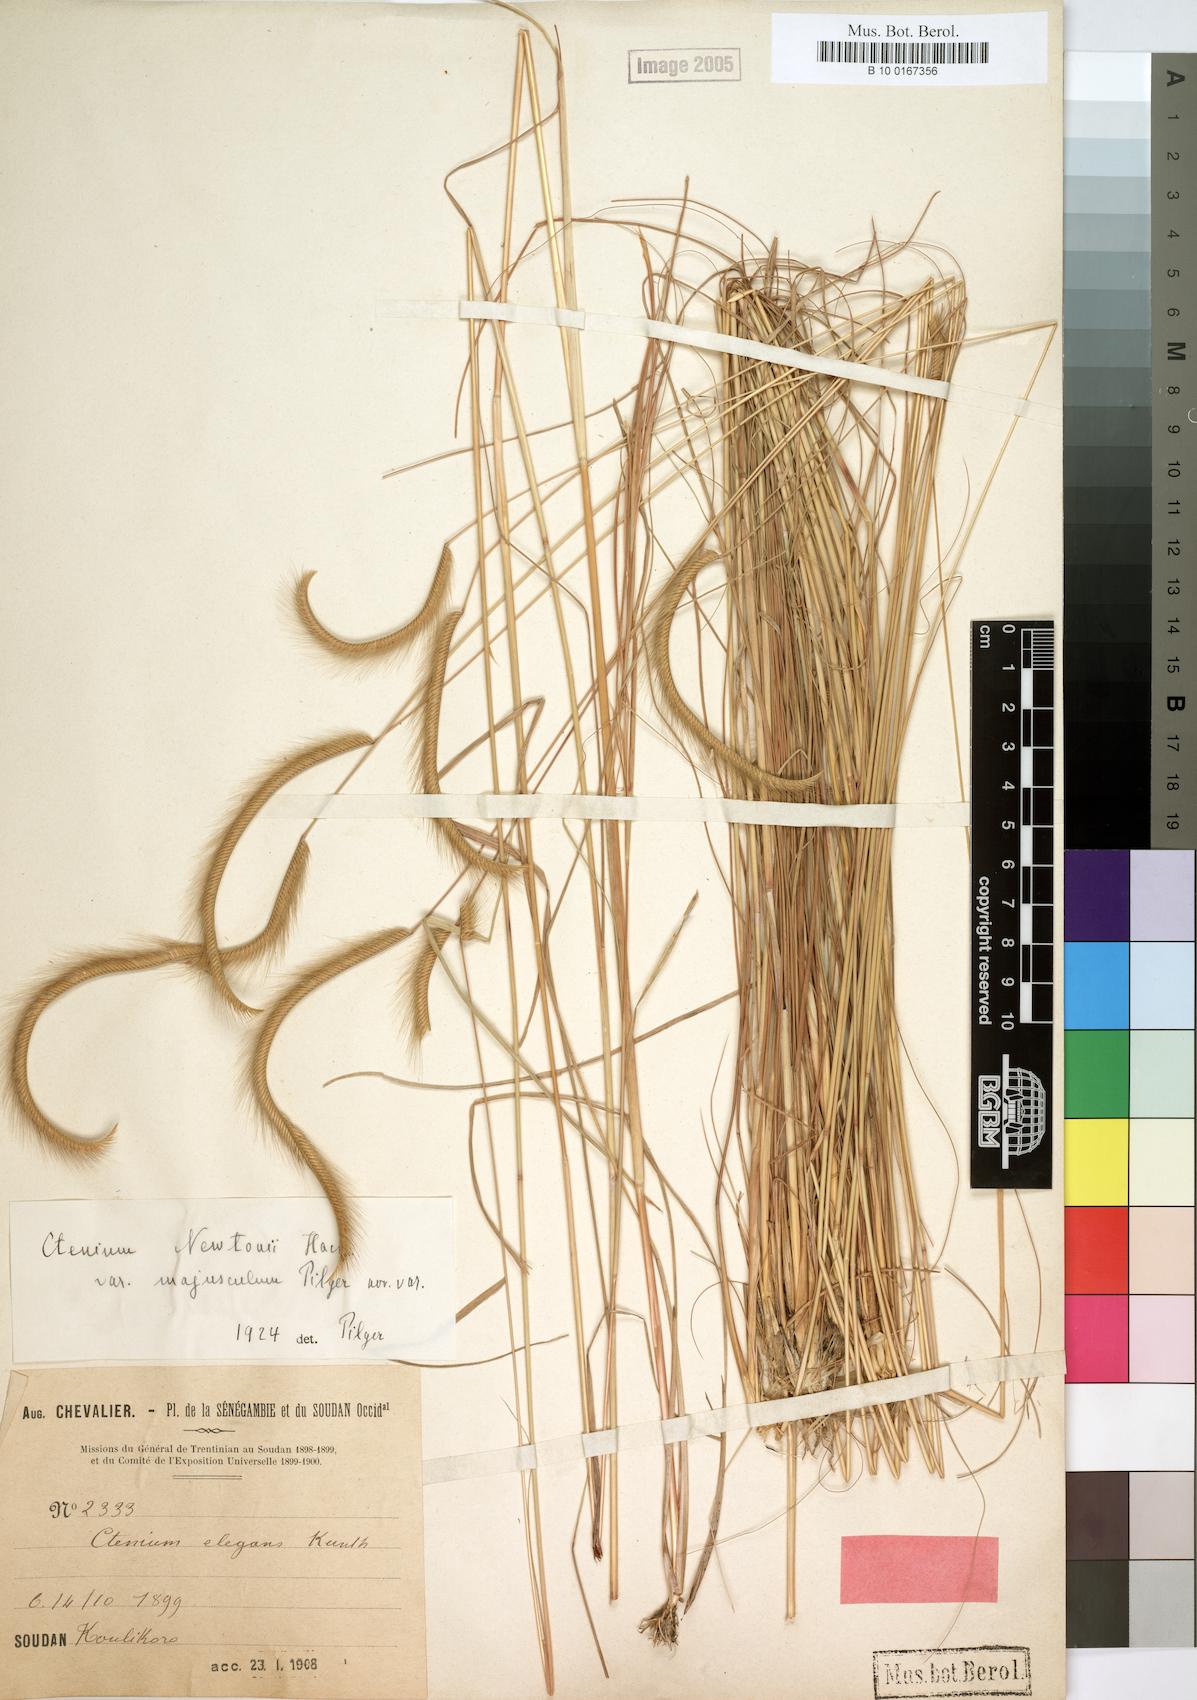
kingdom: Plantae
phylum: Tracheophyta
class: Liliopsida
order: Poales
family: Poaceae
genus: Ctenium
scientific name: Ctenium newtonii
